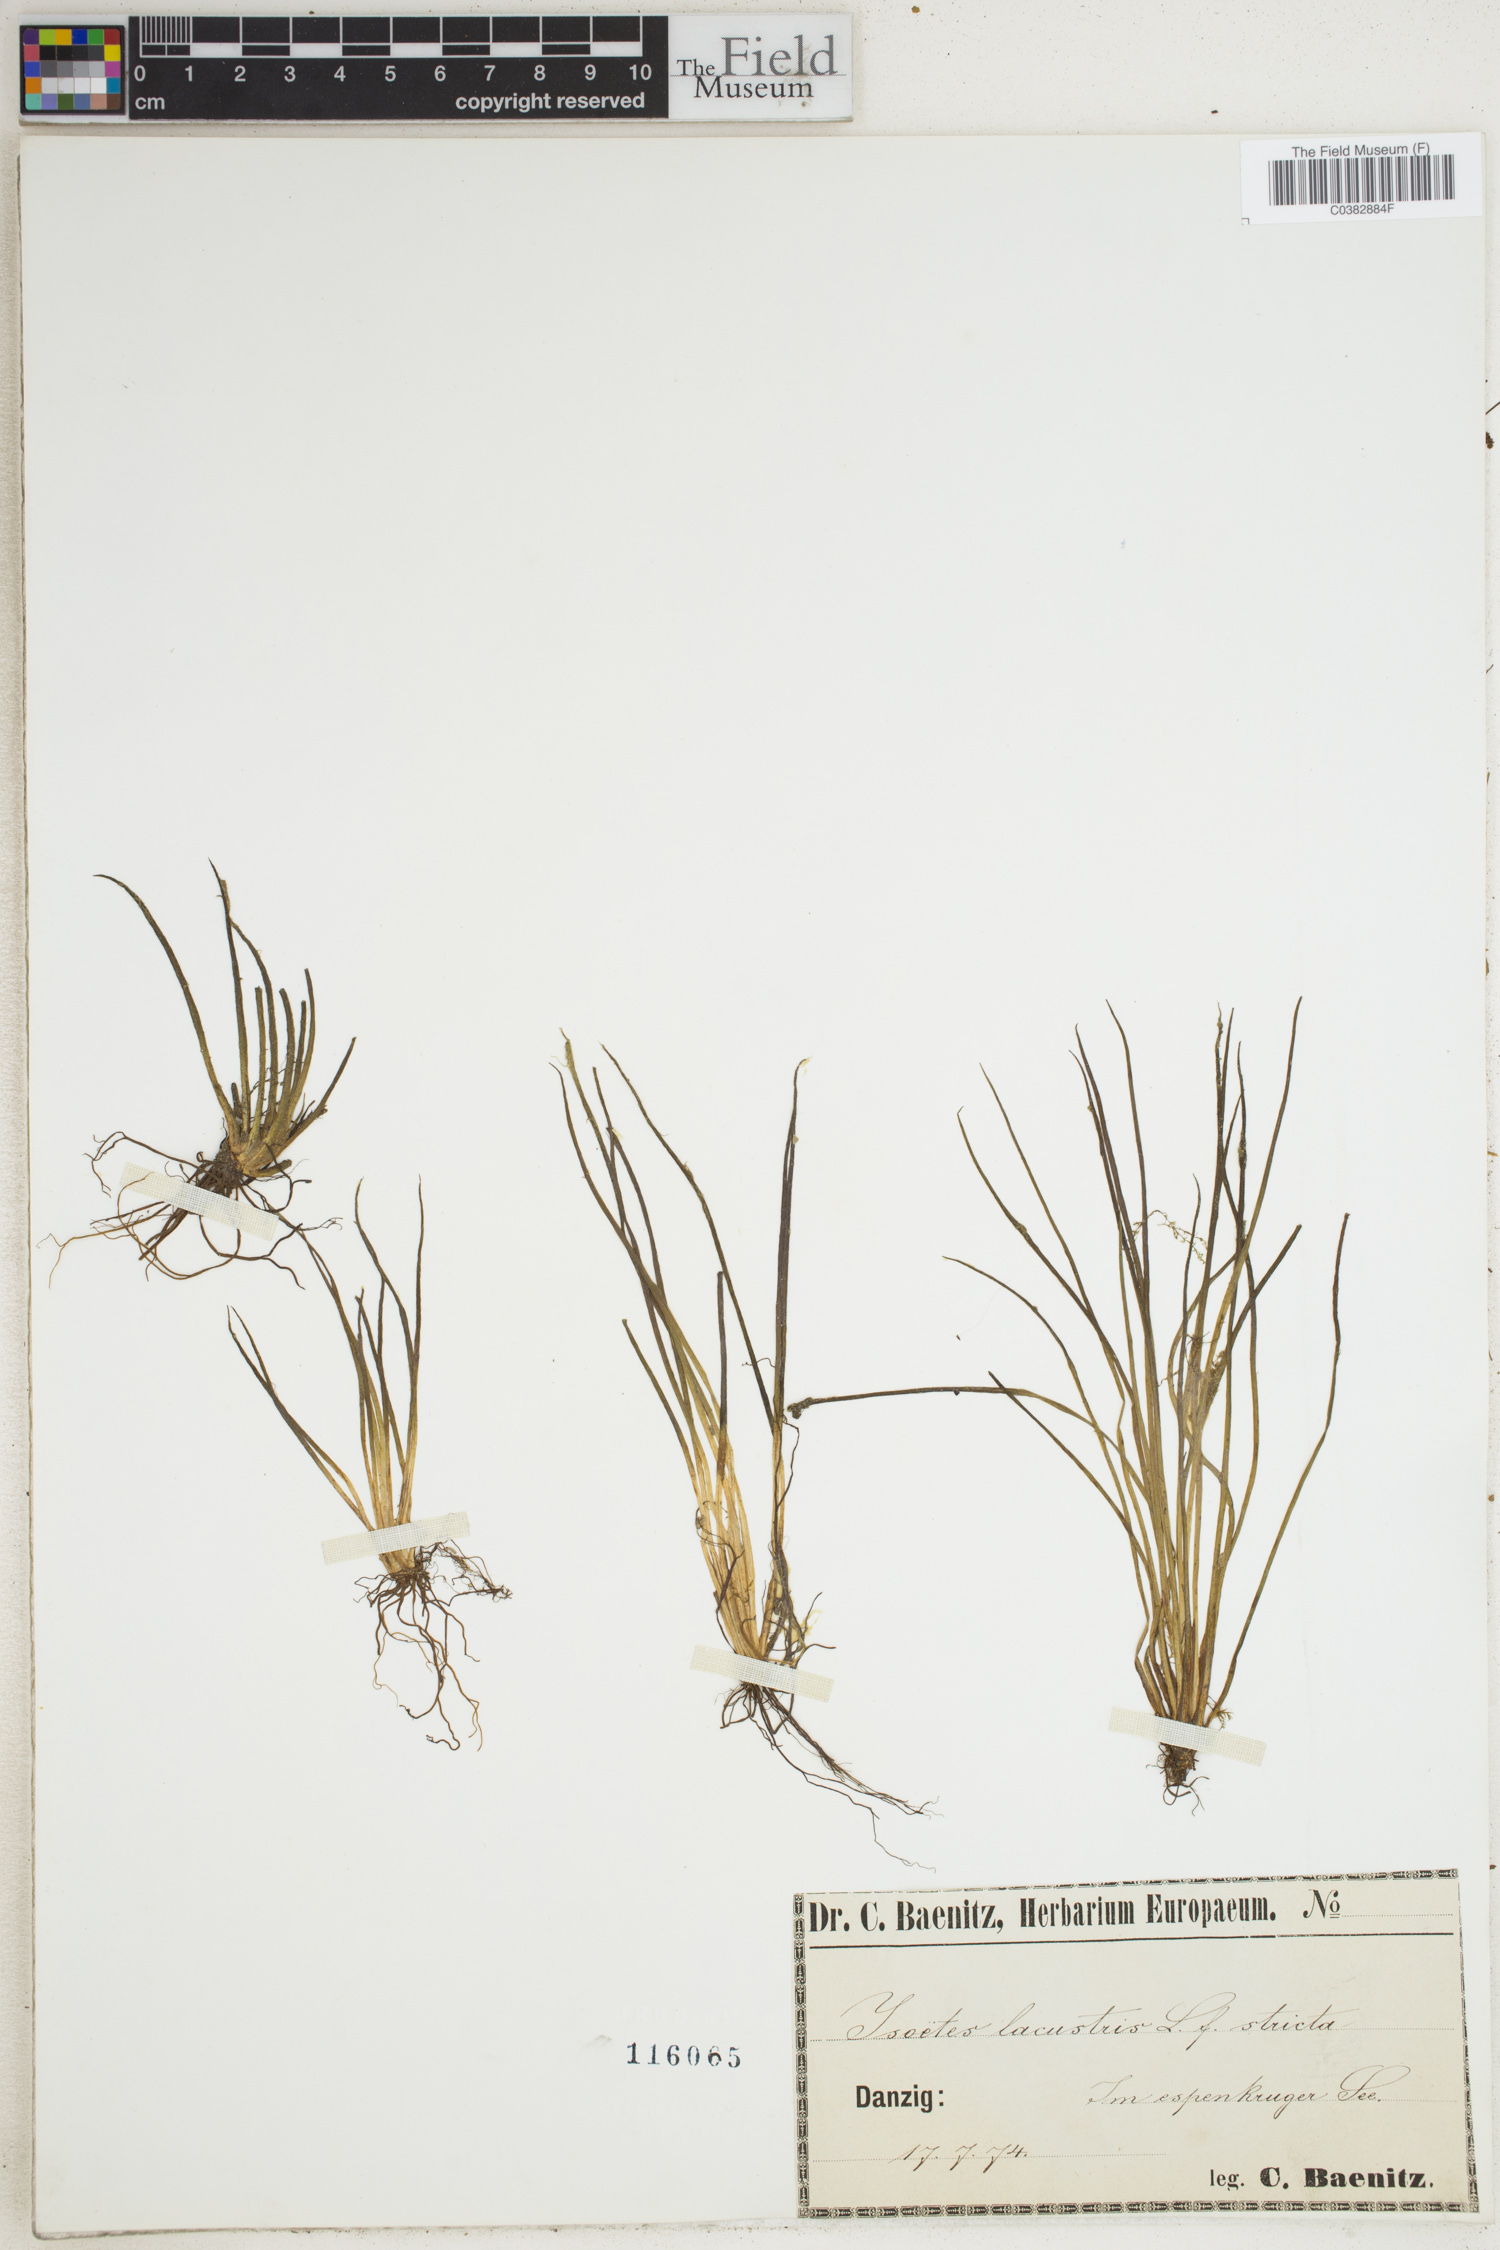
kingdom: Plantae
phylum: Tracheophyta
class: Lycopodiopsida
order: Isoetales
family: Isoetaceae
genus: Isoetes
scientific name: Isoetes lacustris
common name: Common quillwort
